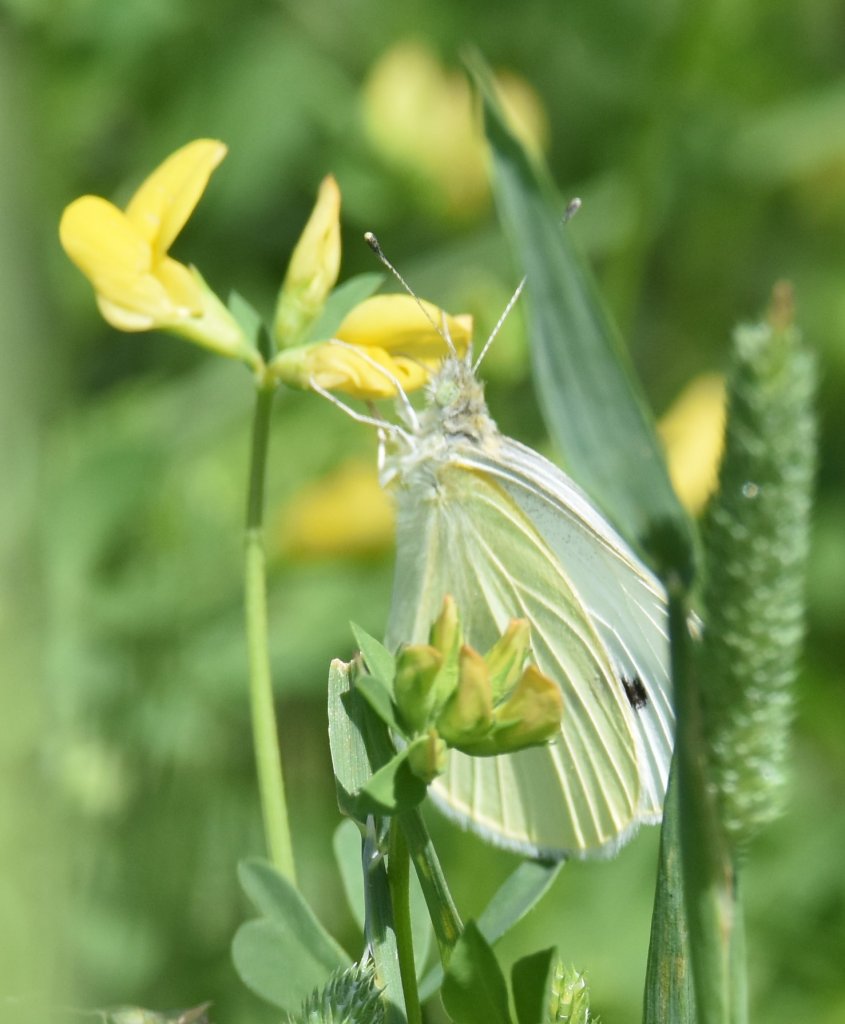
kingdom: Animalia
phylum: Arthropoda
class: Insecta
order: Lepidoptera
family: Pieridae
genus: Pieris
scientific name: Pieris rapae
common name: Cabbage White
